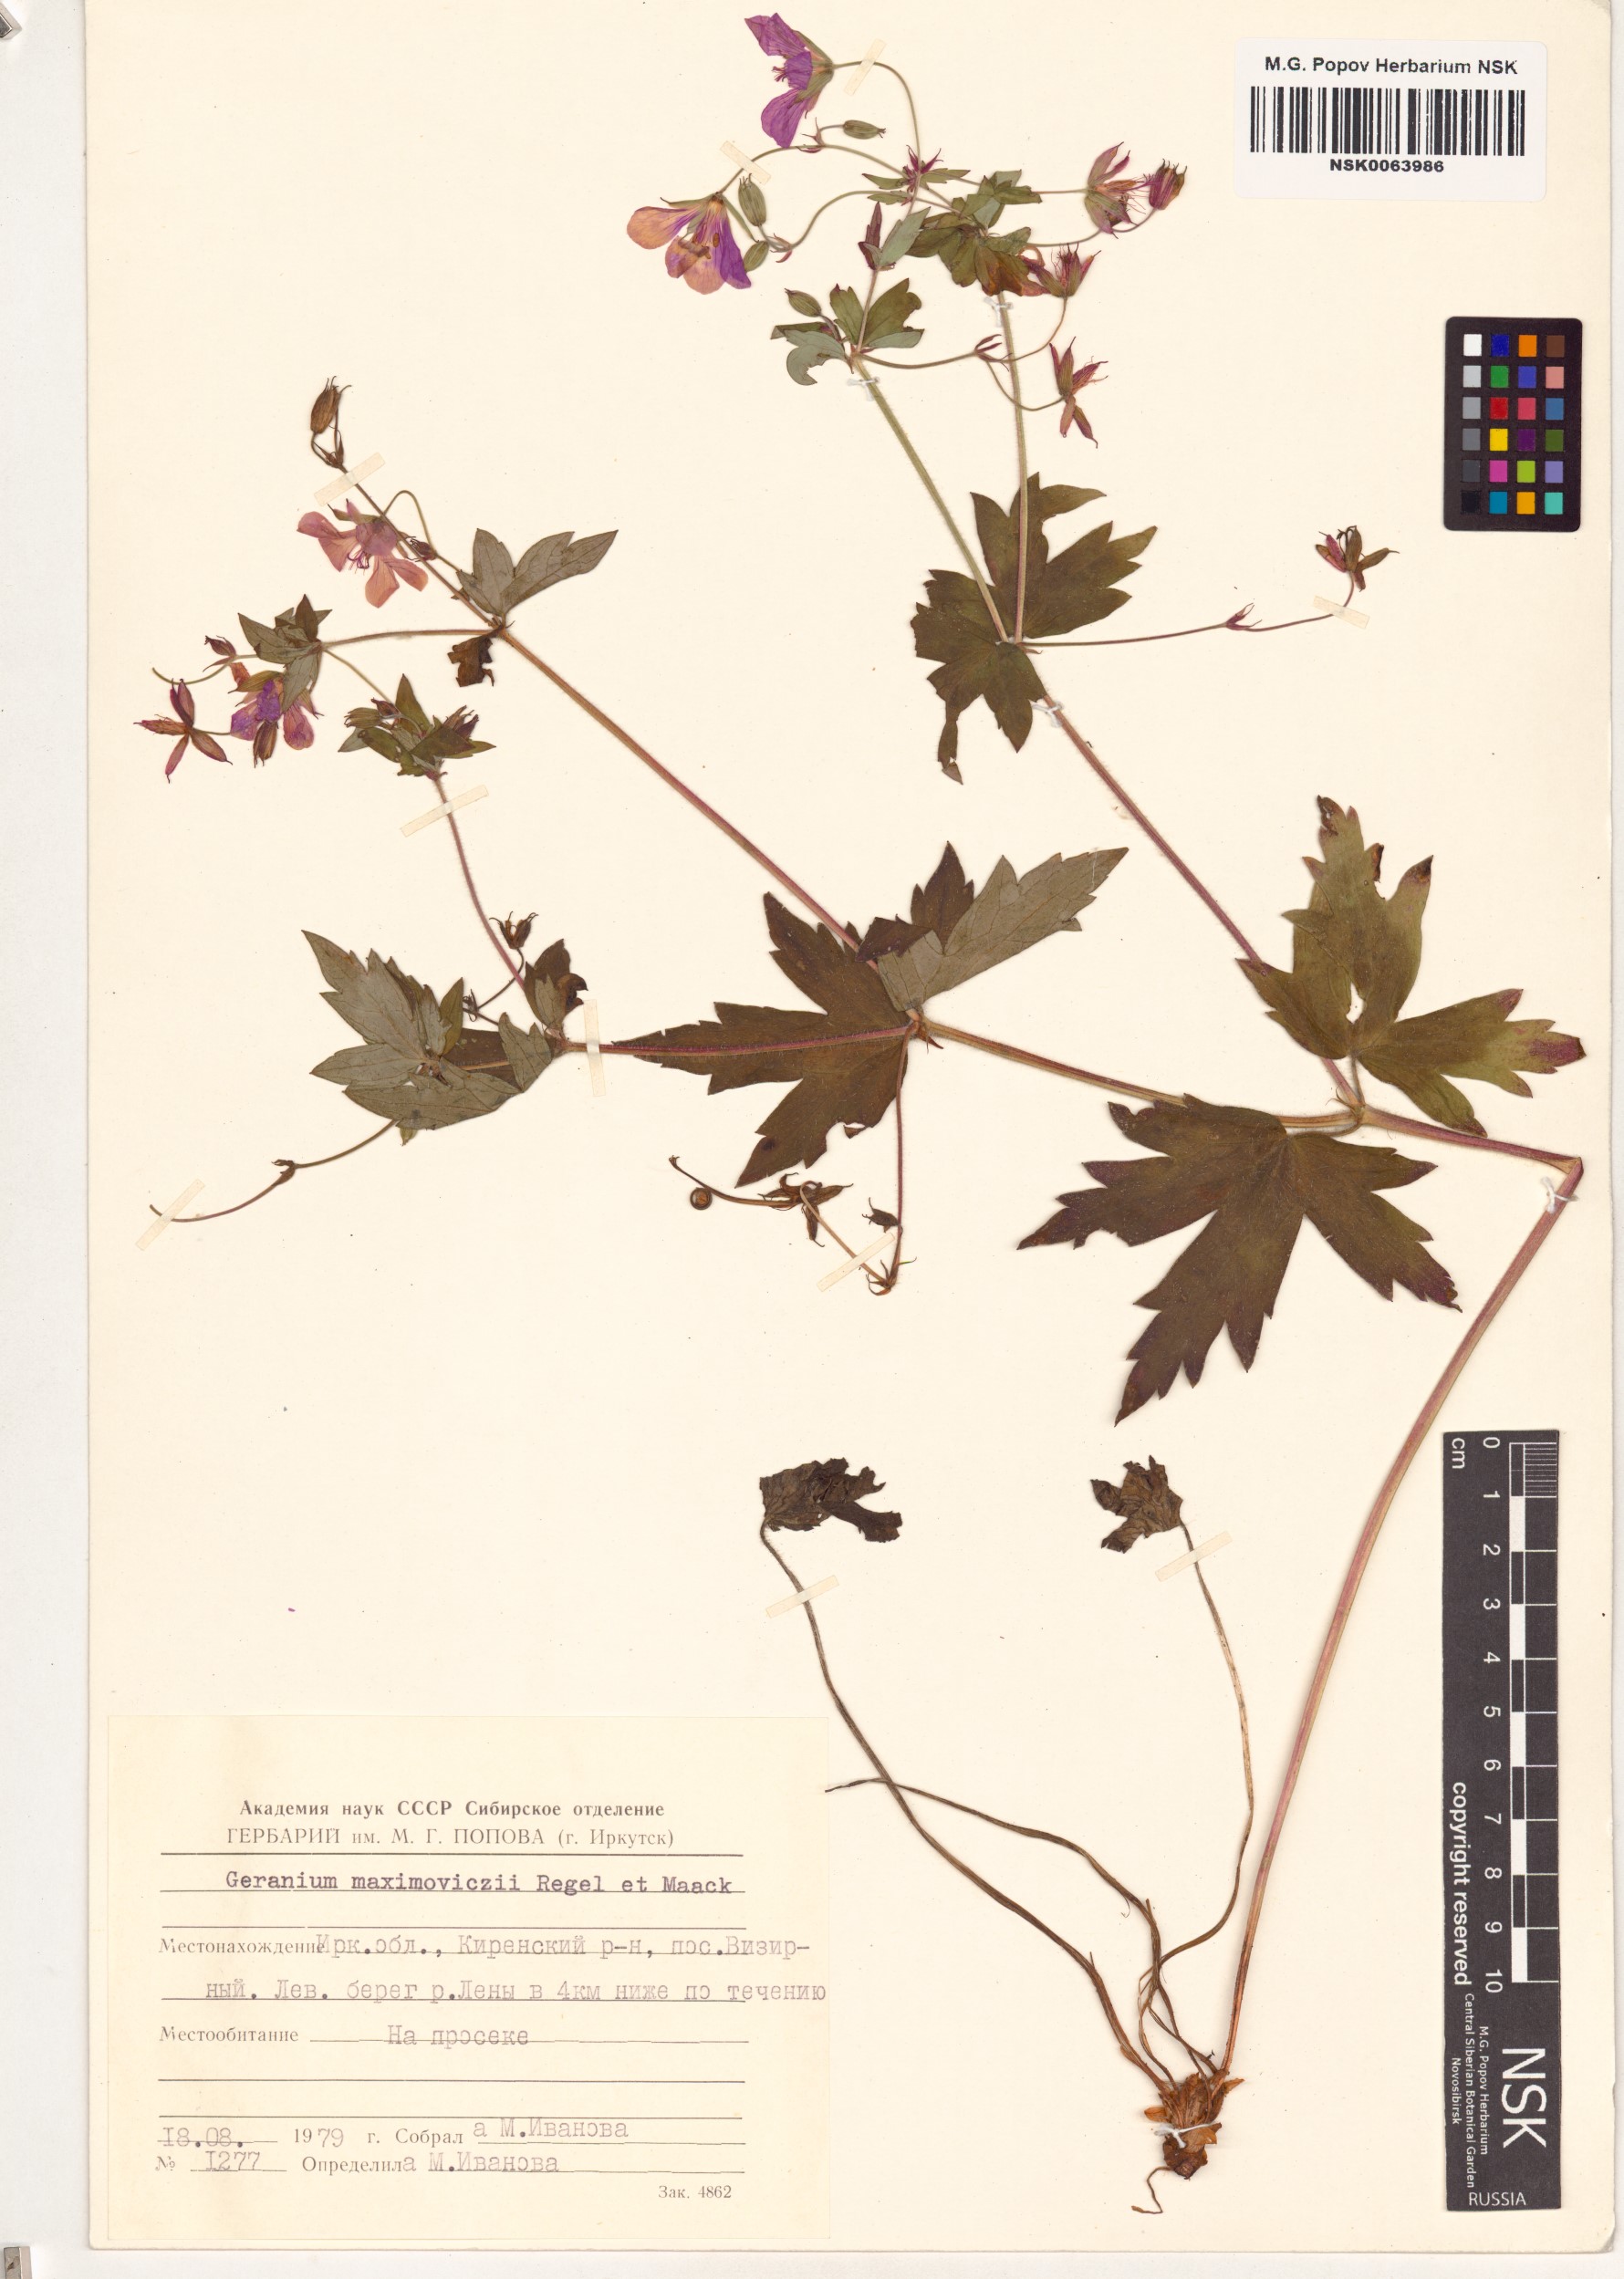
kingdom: Plantae
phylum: Tracheophyta
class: Magnoliopsida
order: Geraniales
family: Geraniaceae
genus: Geranium
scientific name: Geranium maximowiczii
